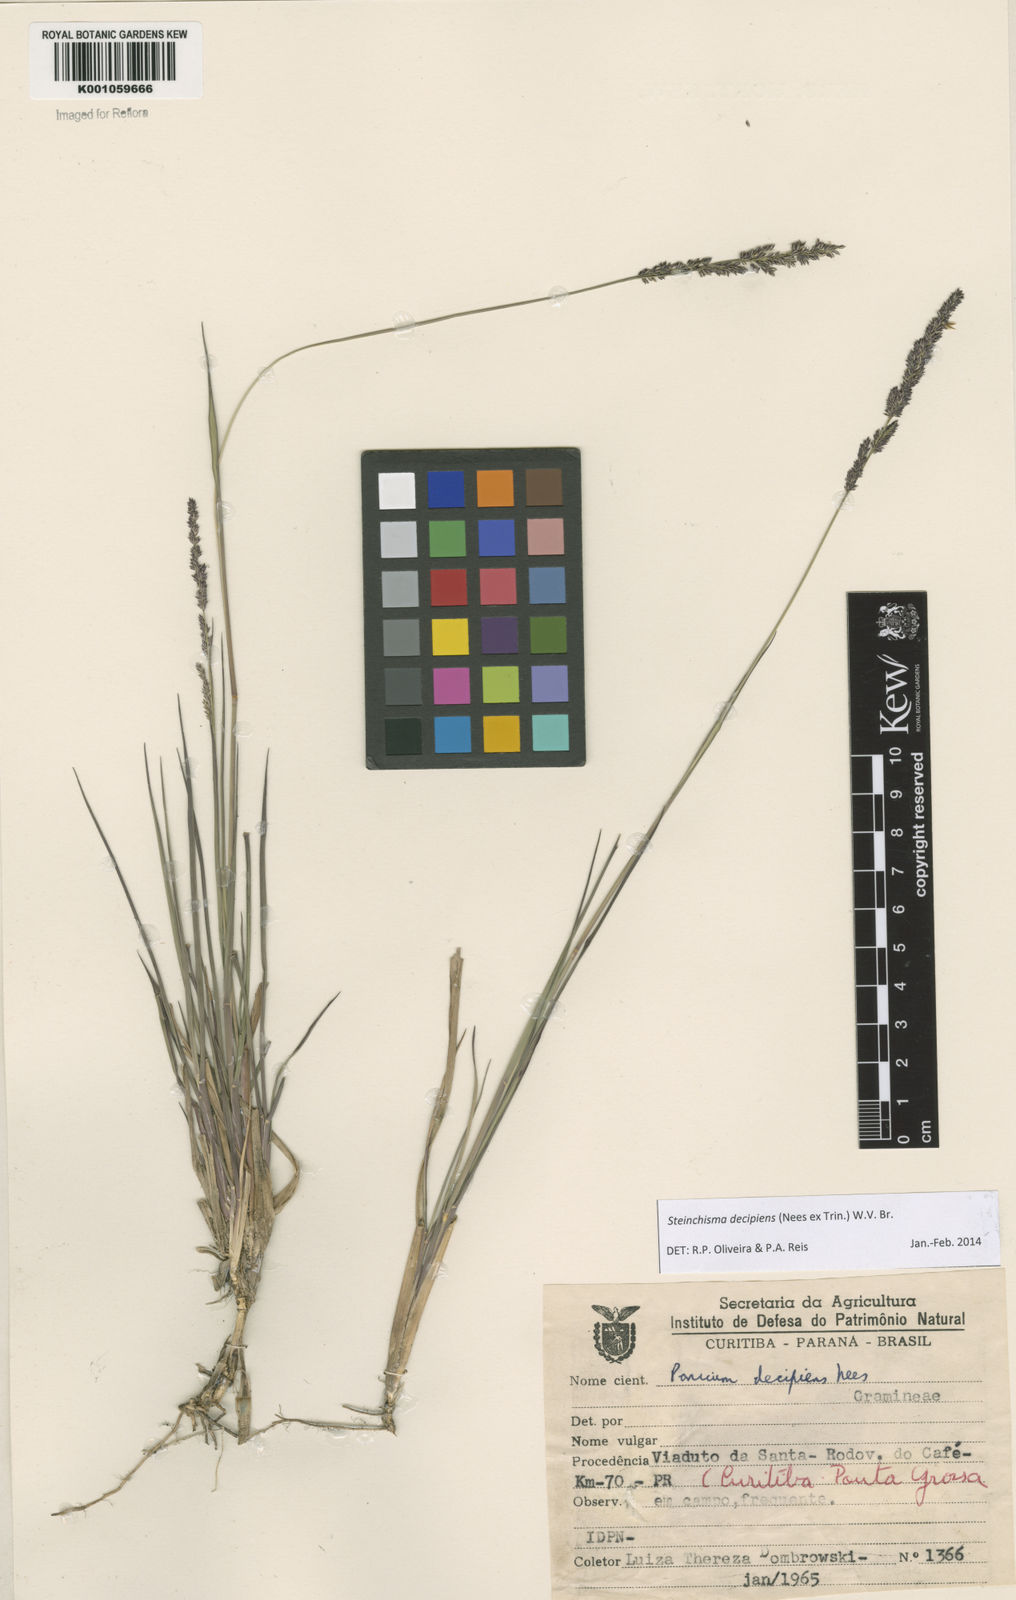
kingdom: Plantae
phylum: Tracheophyta
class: Liliopsida
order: Poales
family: Poaceae
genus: Steinchisma
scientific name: Steinchisma decipiens
